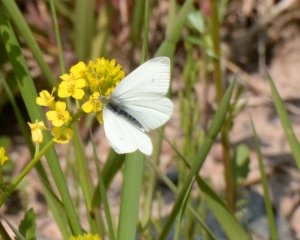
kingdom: Animalia
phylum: Arthropoda
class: Insecta
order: Lepidoptera
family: Pieridae
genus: Pieris
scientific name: Pieris rapae
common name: Cabbage White
